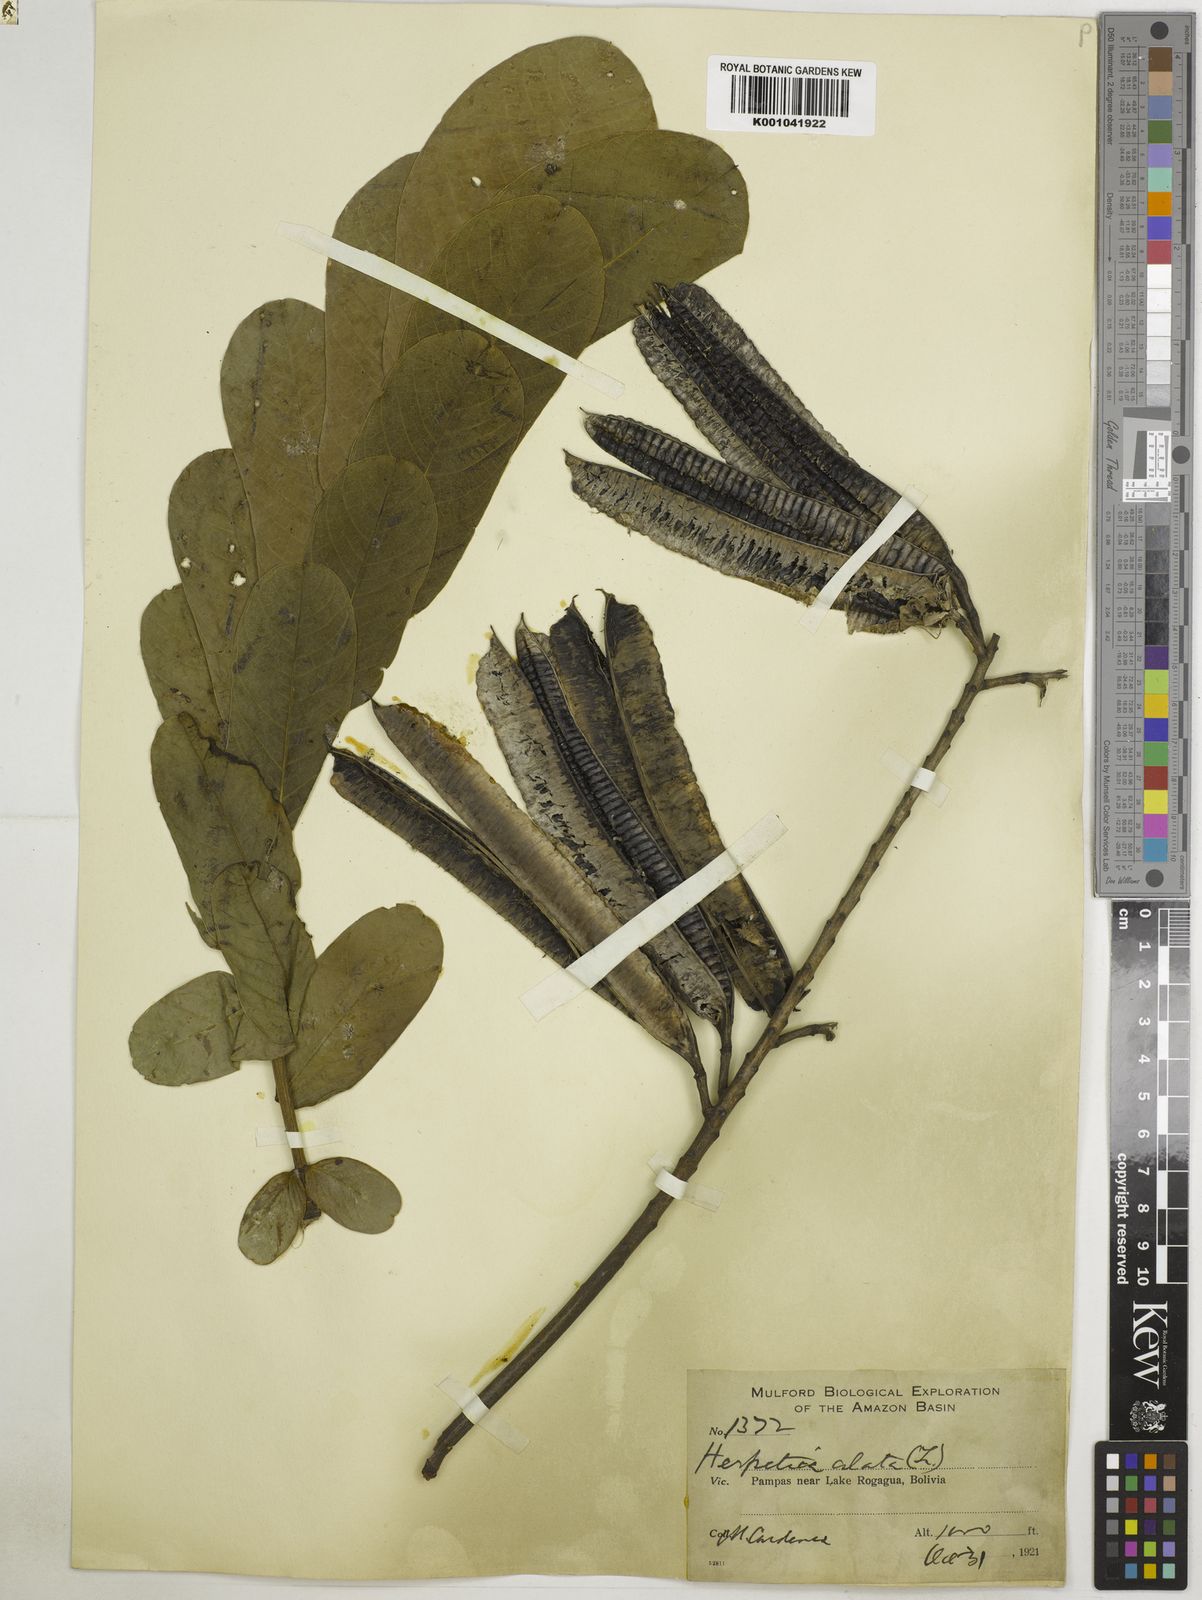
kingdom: Plantae
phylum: Tracheophyta
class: Magnoliopsida
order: Fabales
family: Fabaceae
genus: Senna
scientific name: Senna alata
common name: Emperor's candlesticks
